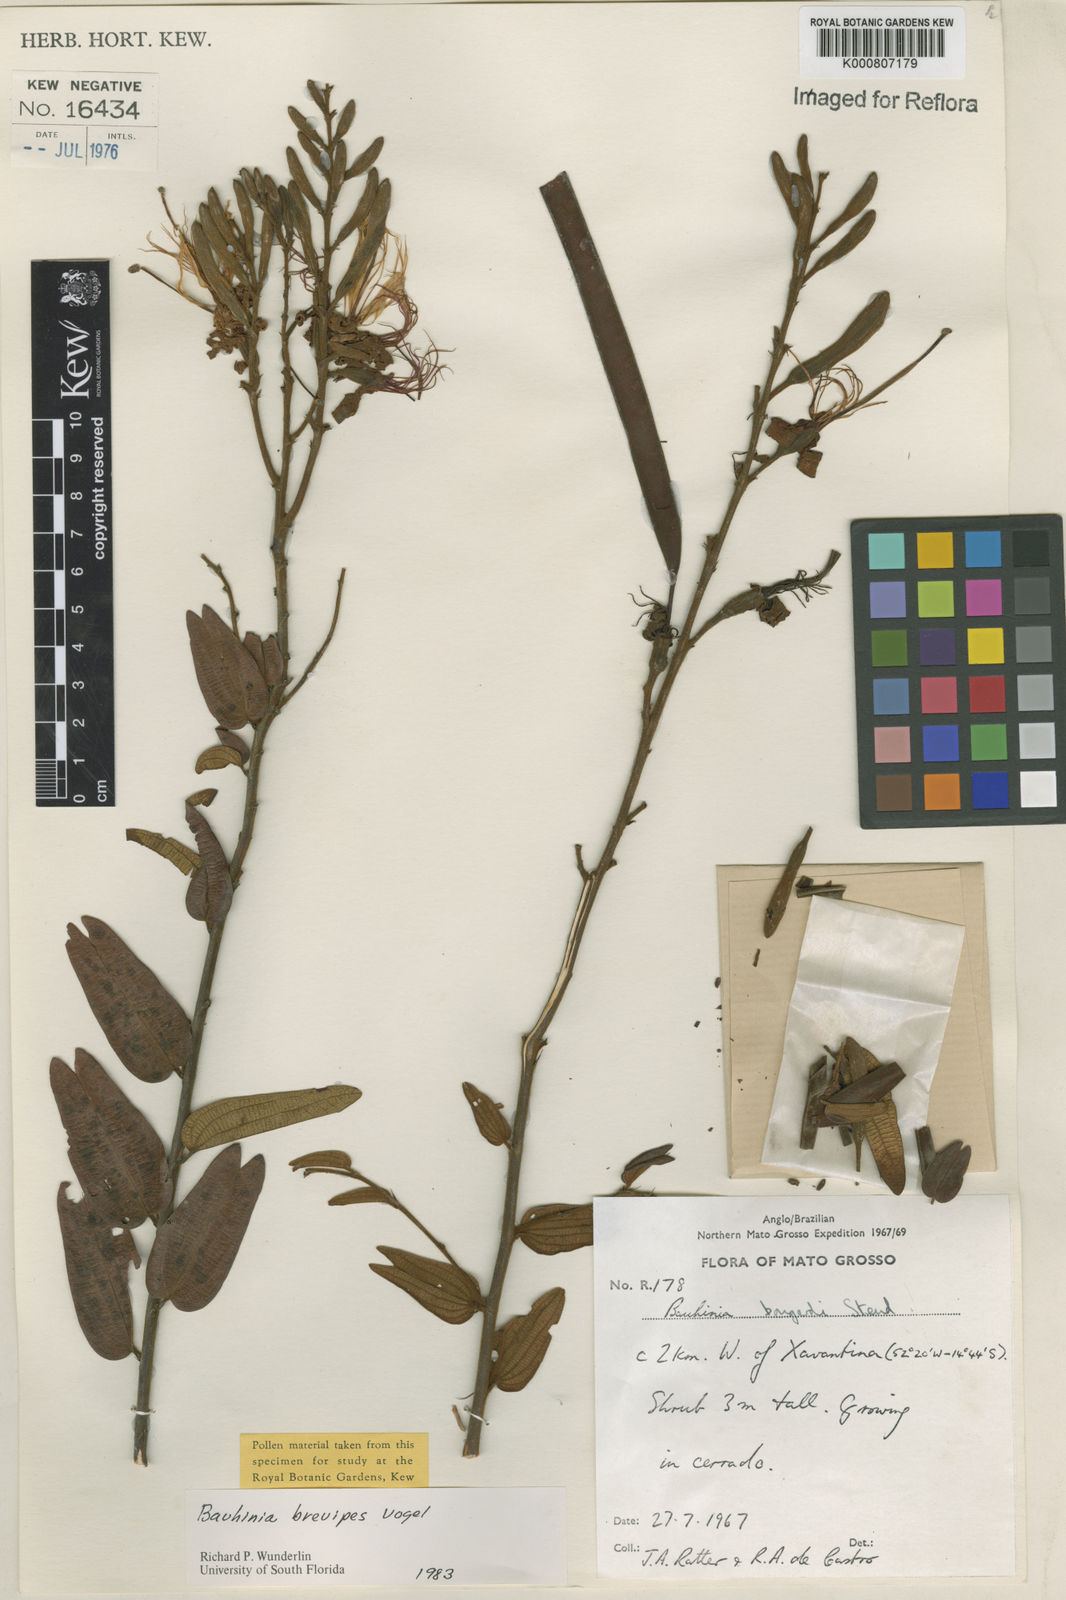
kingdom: Plantae
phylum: Tracheophyta
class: Magnoliopsida
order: Fabales
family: Fabaceae
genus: Bauhinia
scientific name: Bauhinia brevipes
